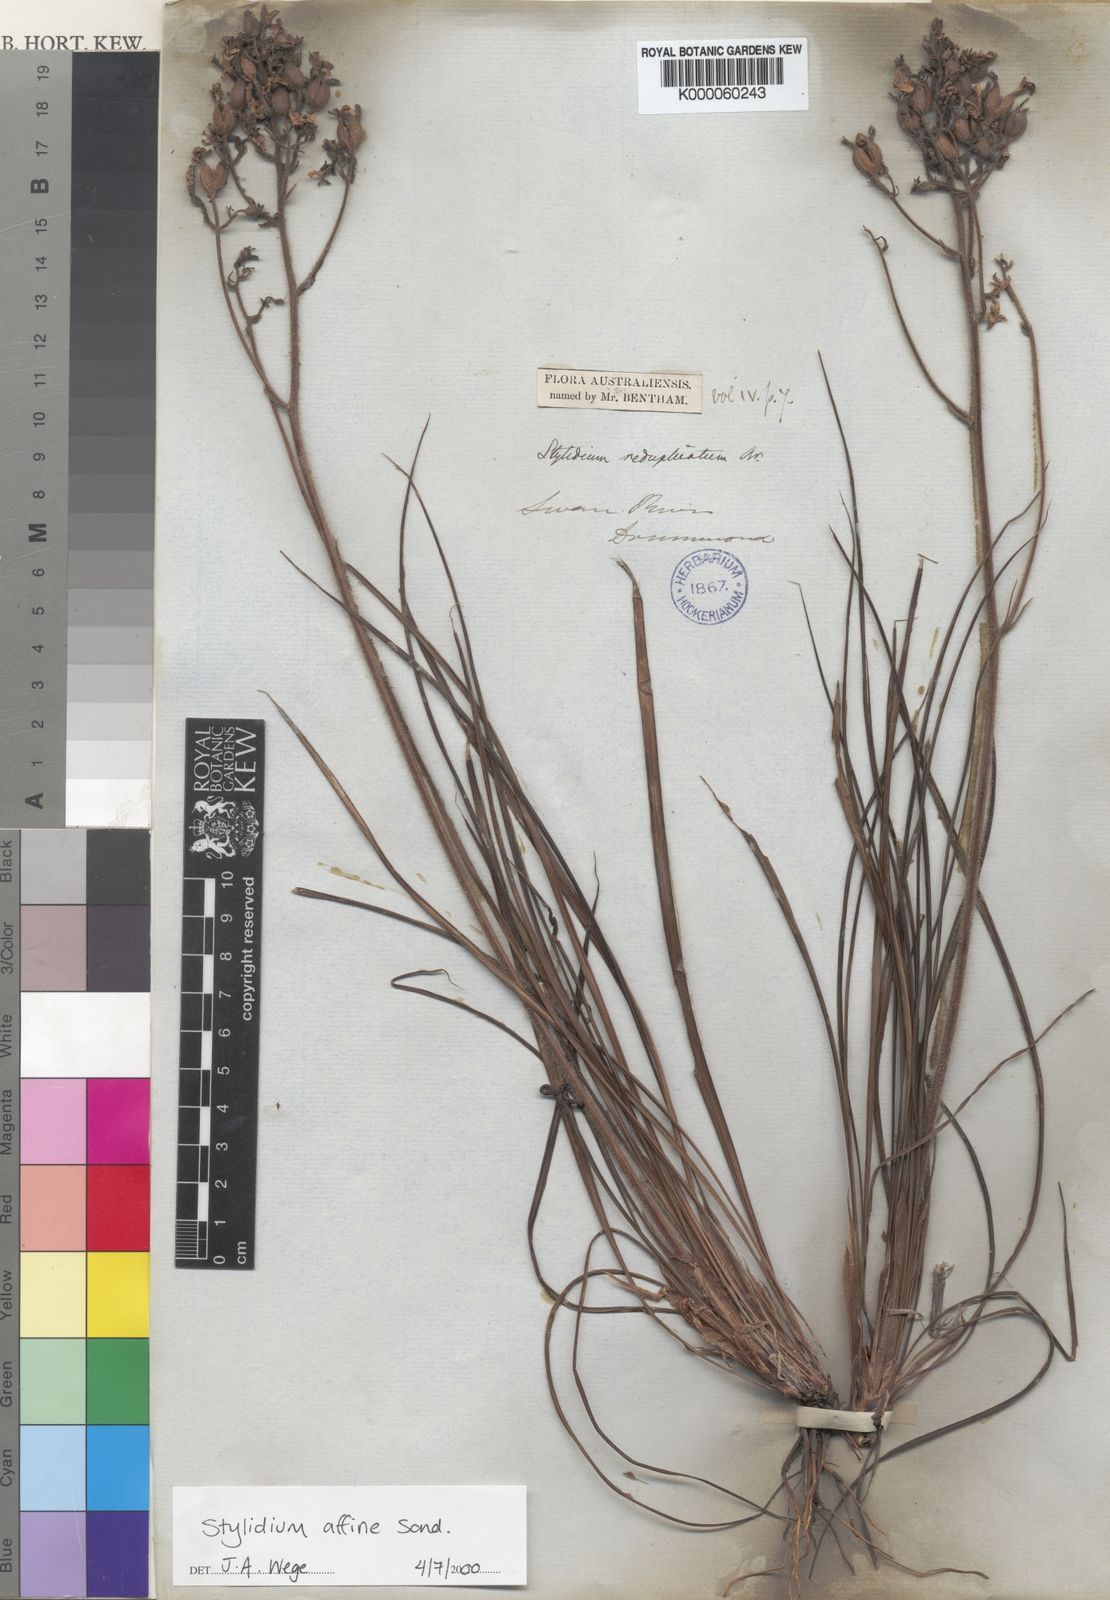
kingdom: Plantae
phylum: Tracheophyta
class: Magnoliopsida
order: Asterales
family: Stylidiaceae
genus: Stylidium
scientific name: Stylidium affine
